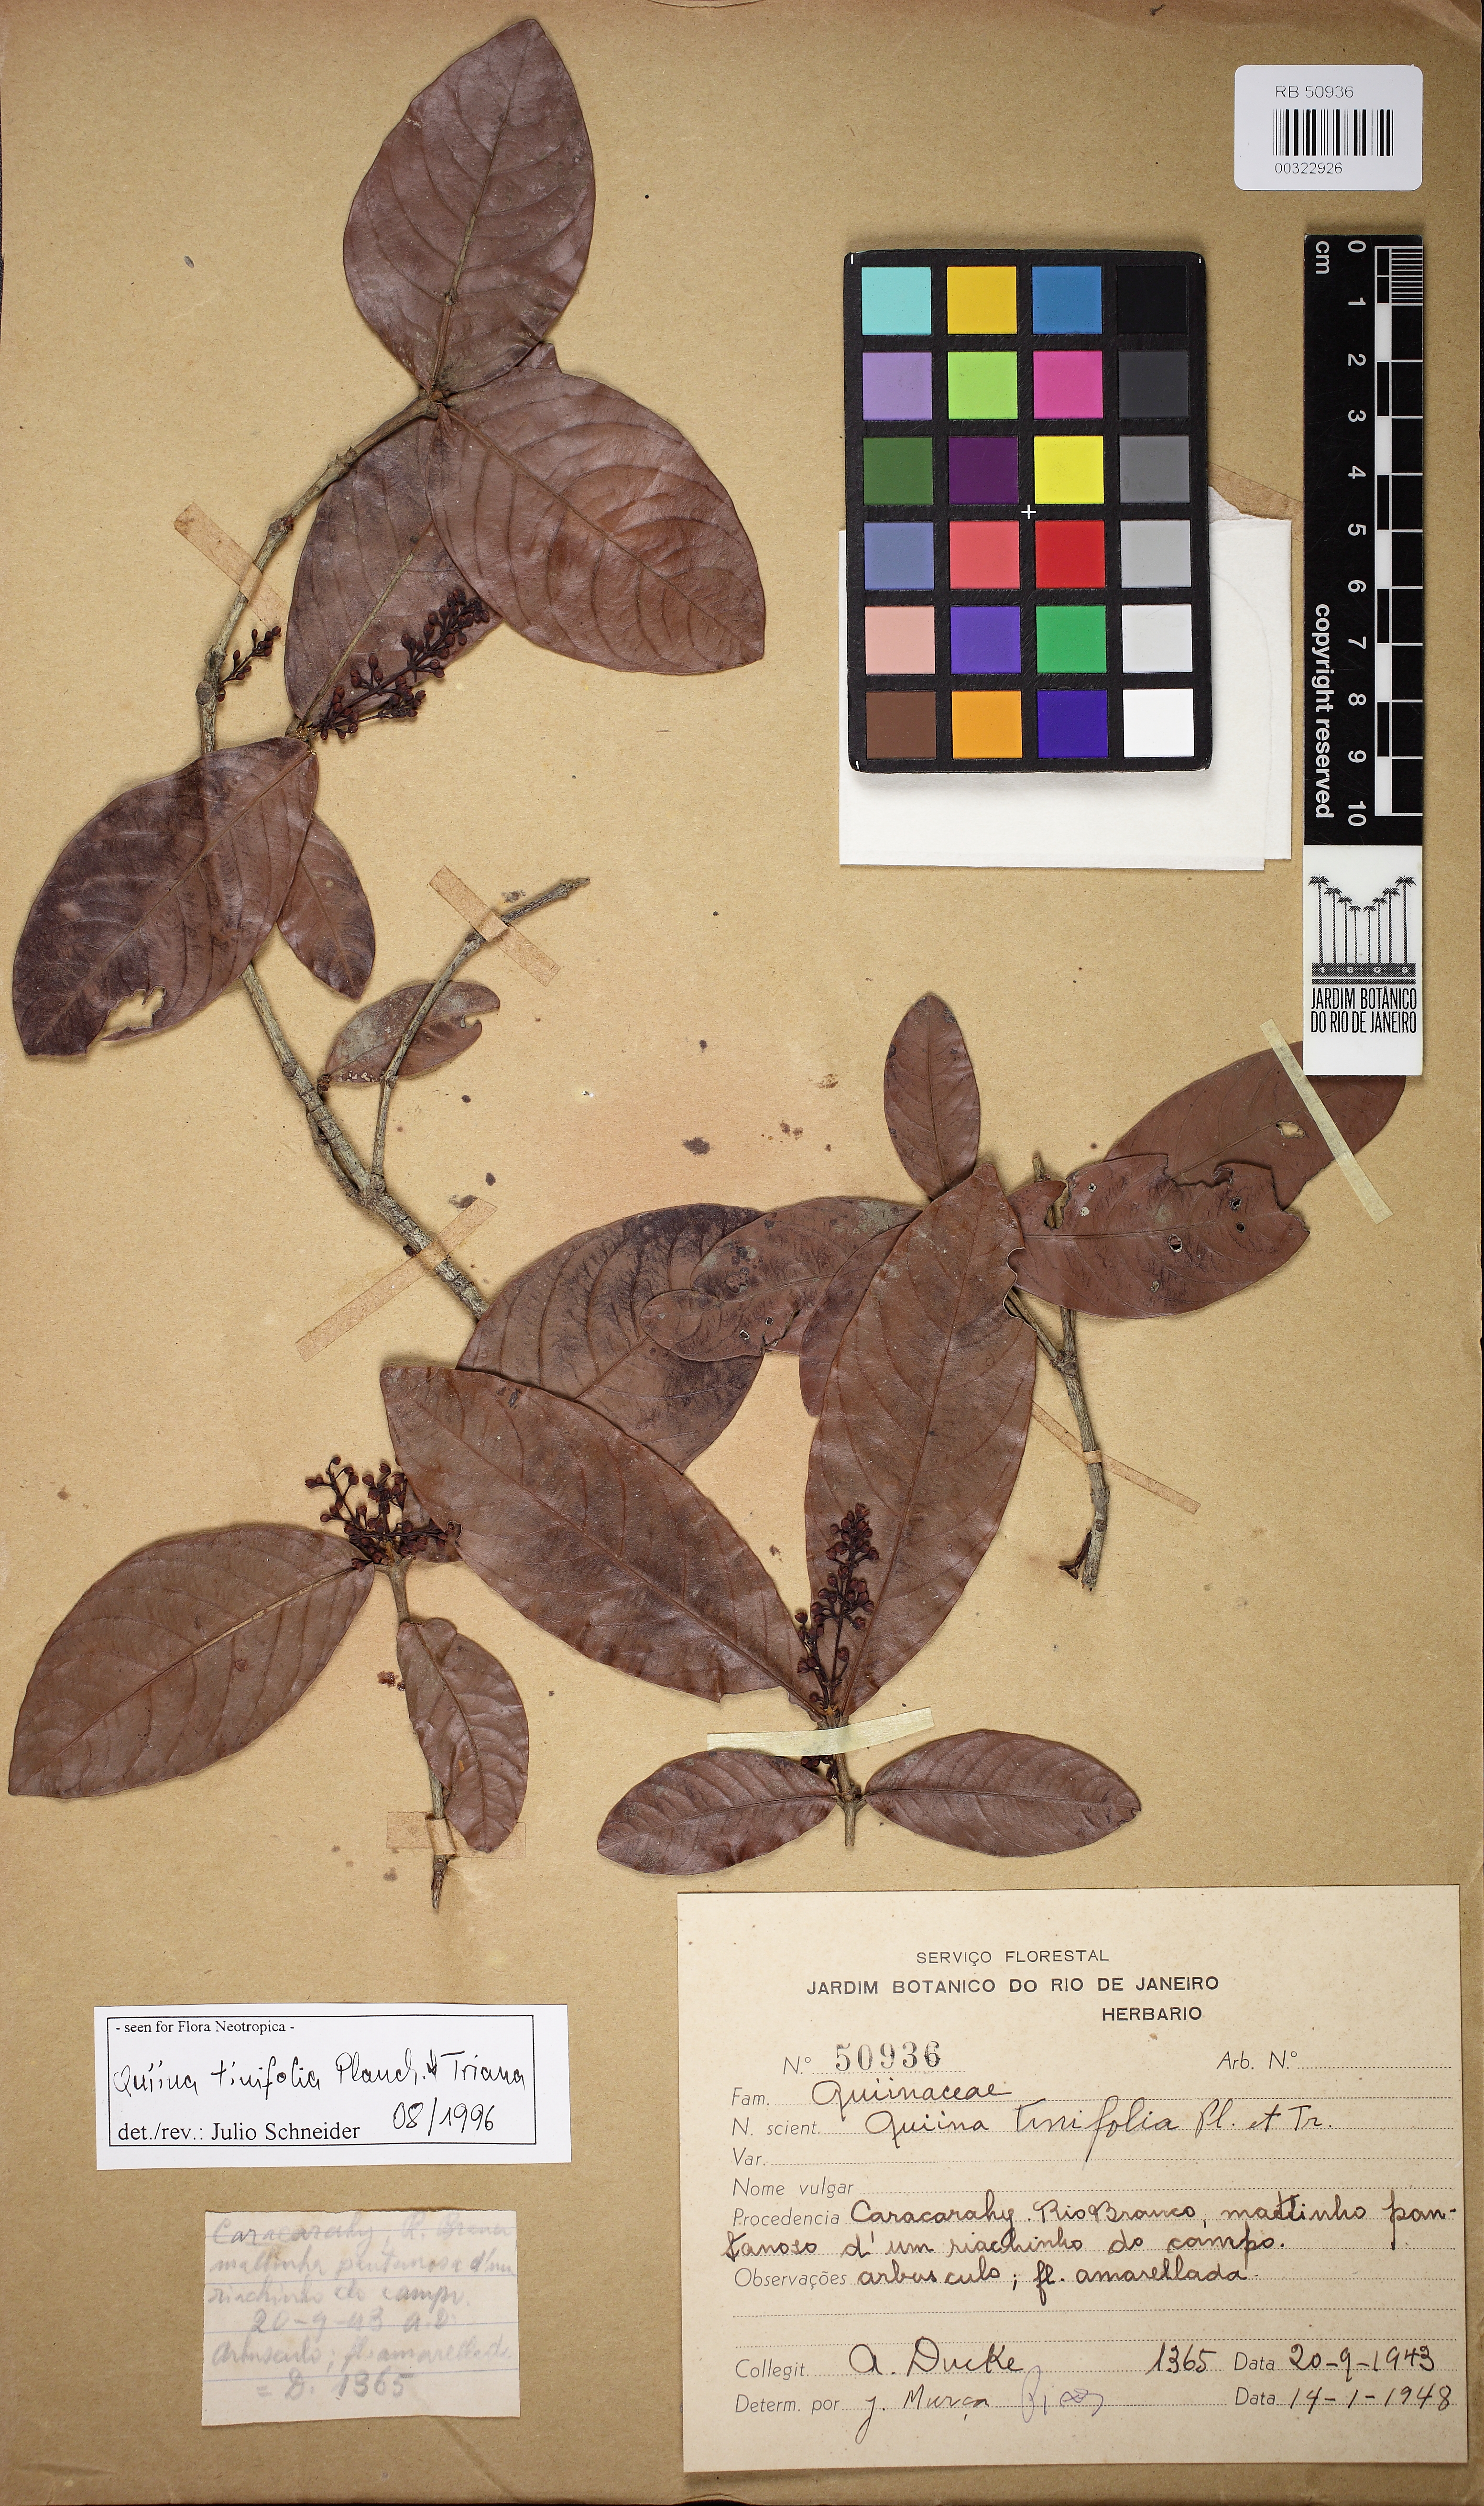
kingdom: Plantae
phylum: Tracheophyta
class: Magnoliopsida
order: Malpighiales
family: Quiinaceae
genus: Quiina
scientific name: Quiina tinifolia
